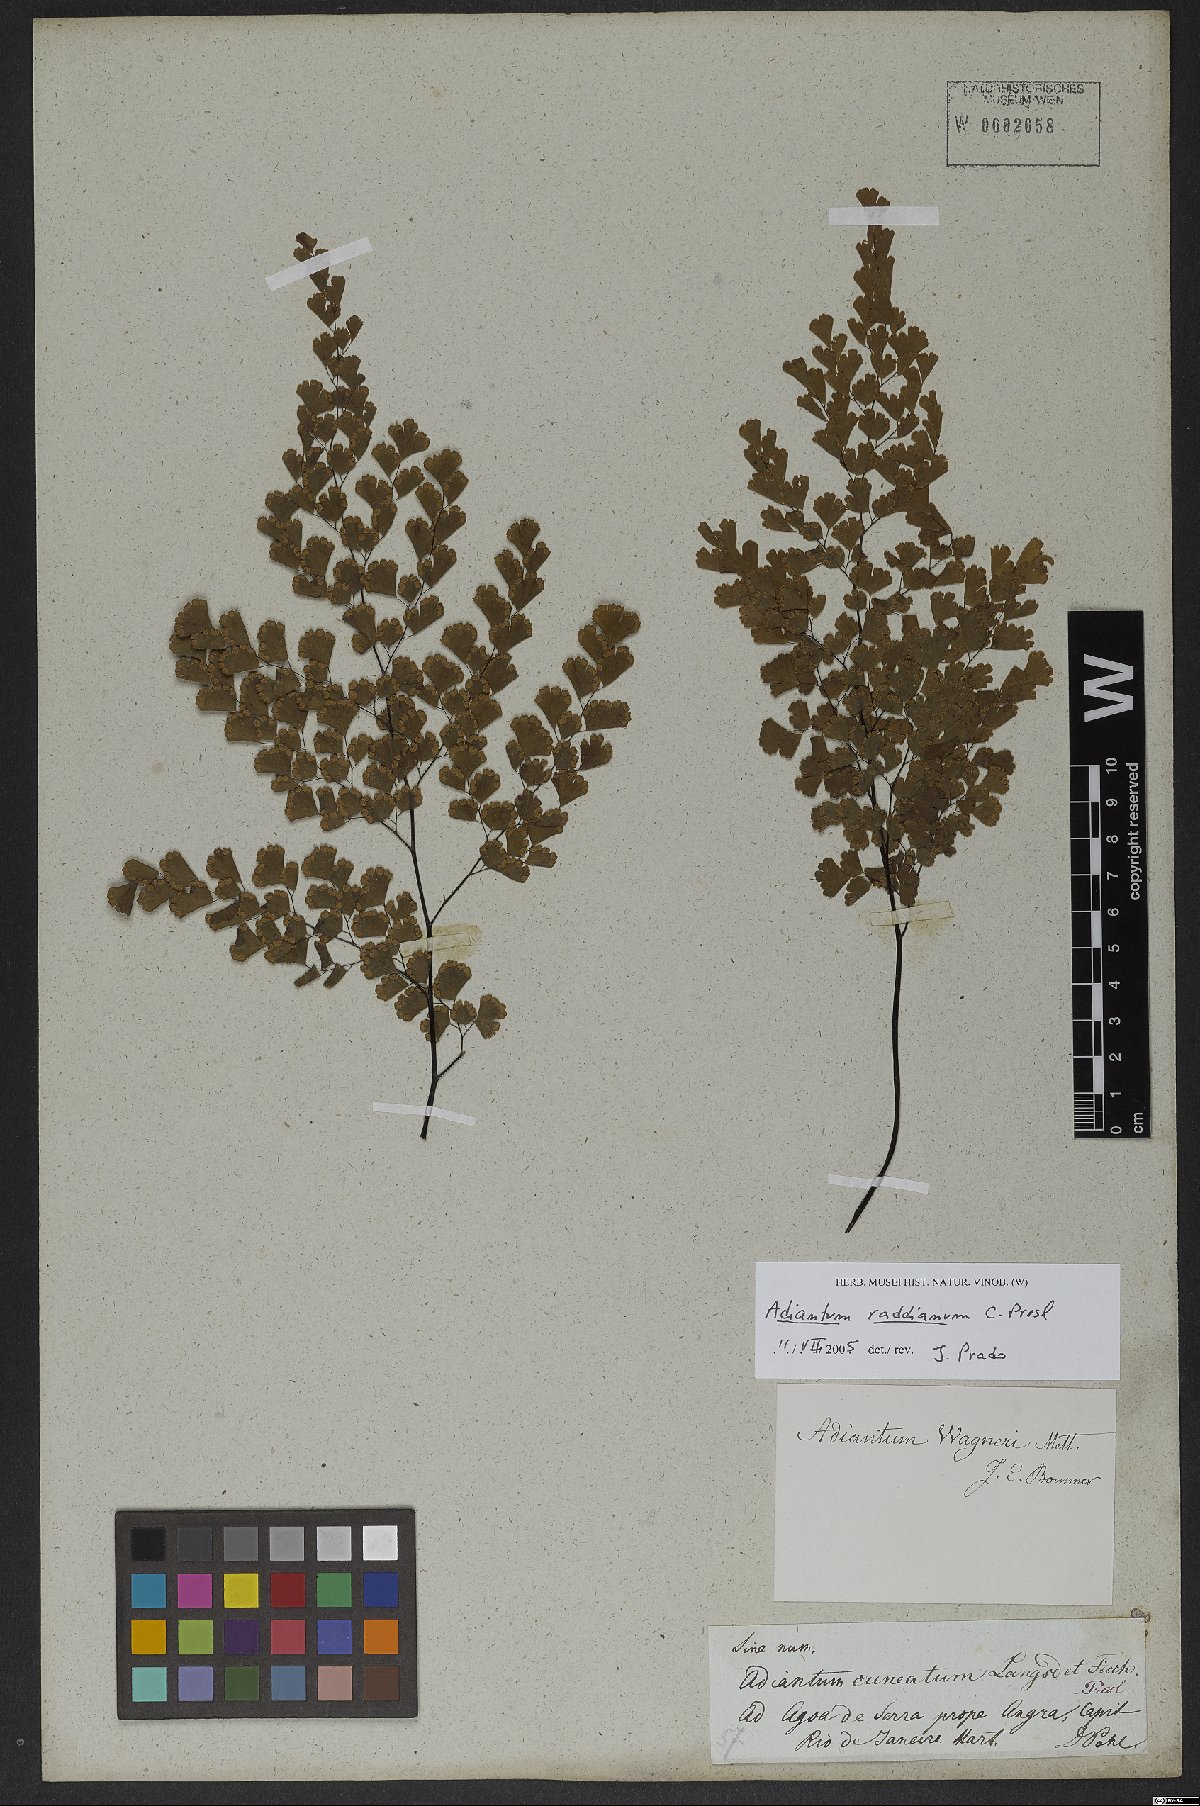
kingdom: Plantae
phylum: Tracheophyta
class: Polypodiopsida
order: Polypodiales
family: Pteridaceae
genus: Adiantum
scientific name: Adiantum raddianum
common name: Delta maidenhair fern
